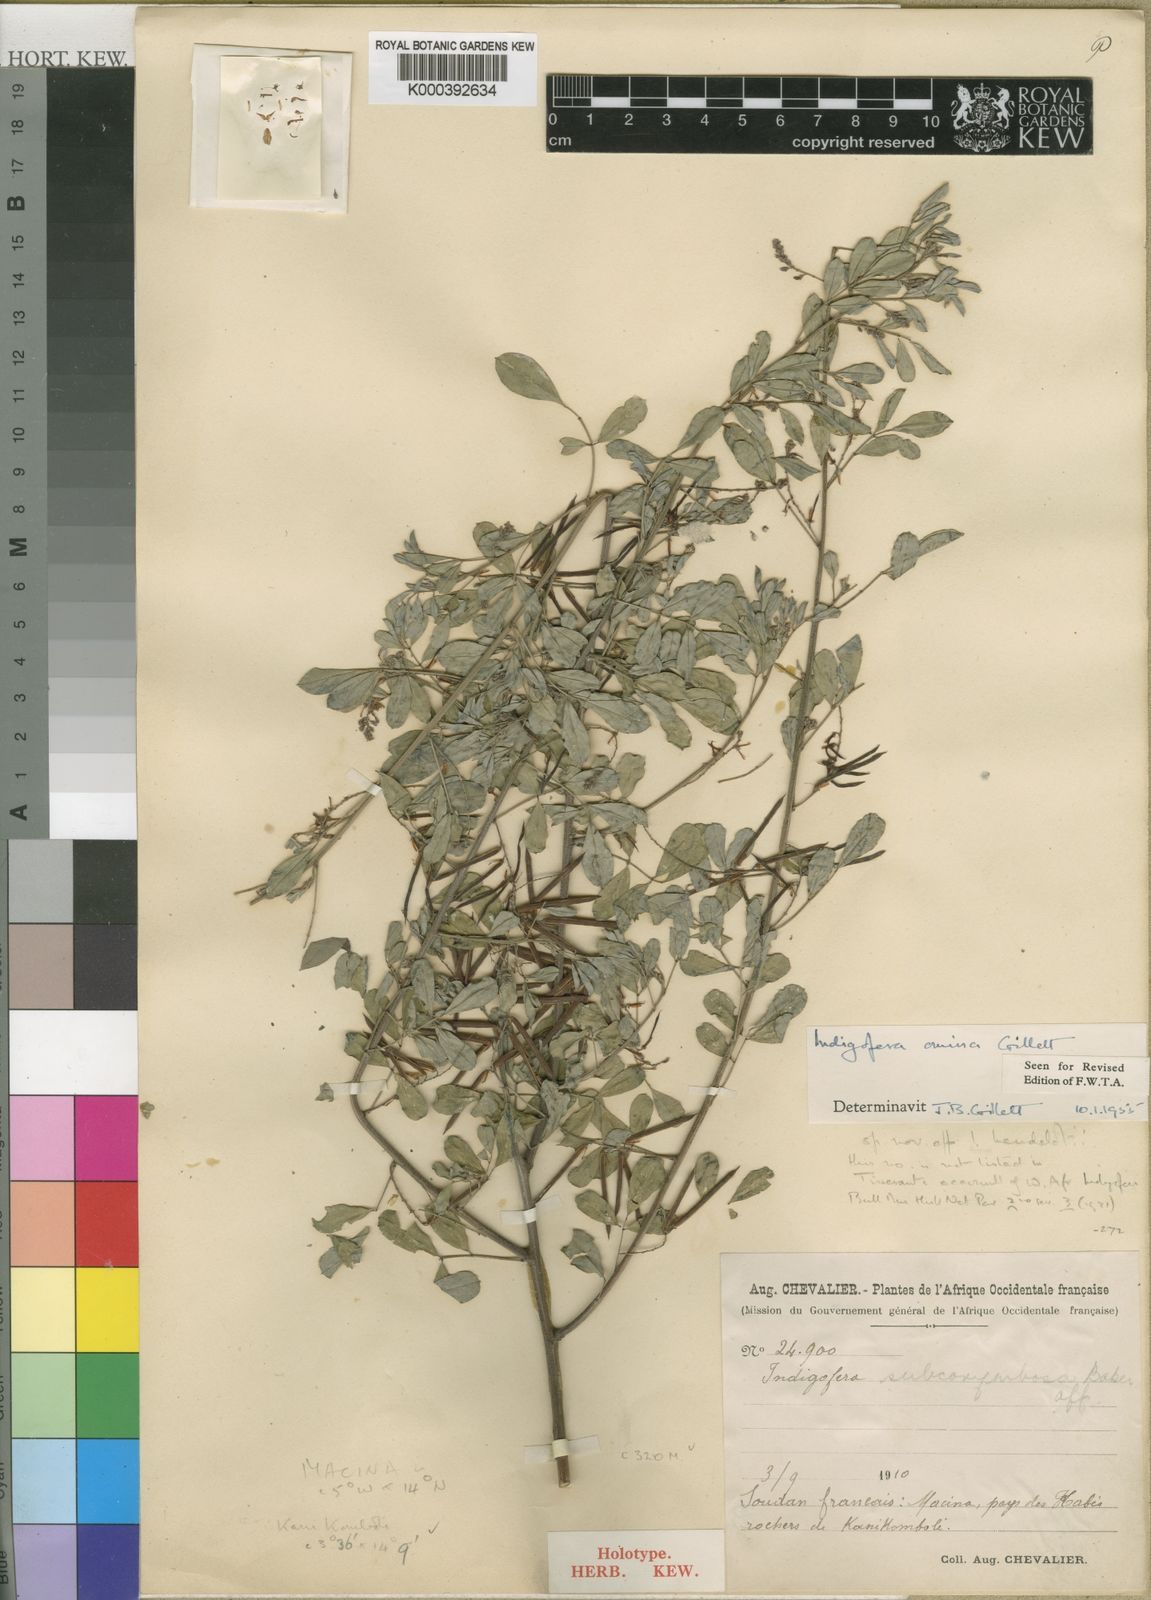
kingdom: Plantae
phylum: Tracheophyta
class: Magnoliopsida
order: Fabales
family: Fabaceae
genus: Indigofera
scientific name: Indigofera omissa
